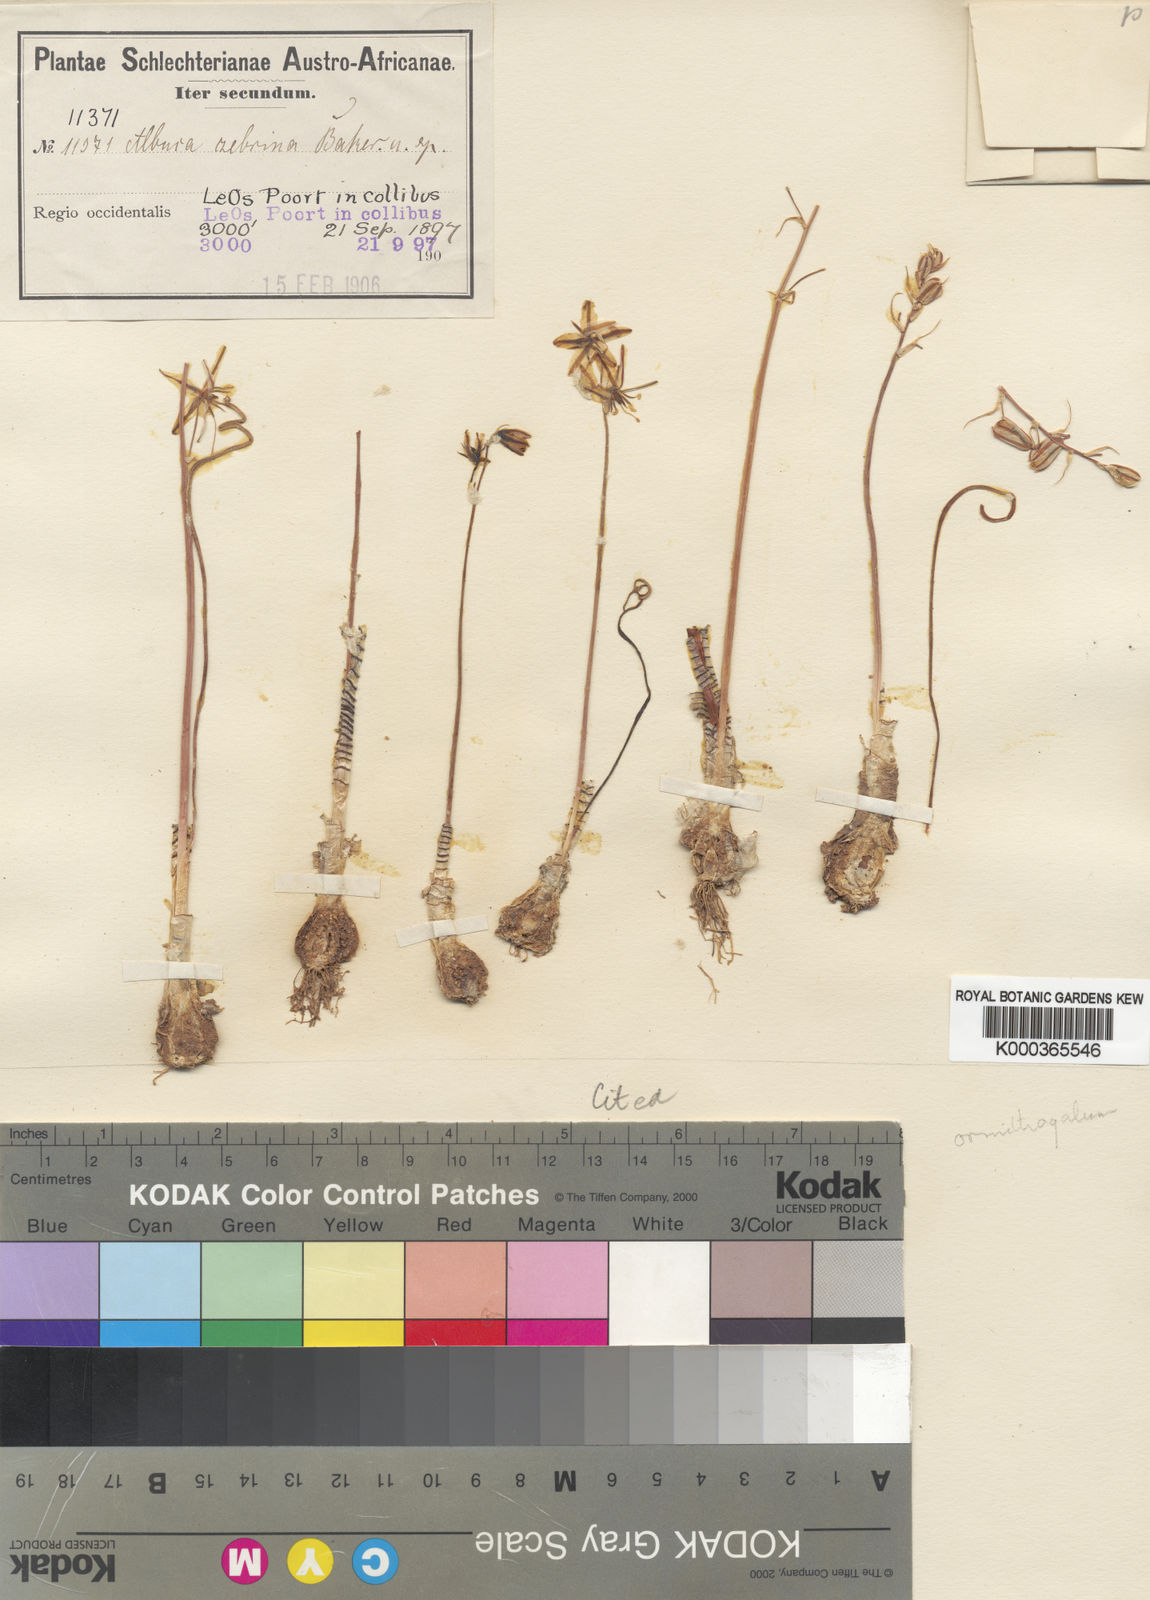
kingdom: Plantae
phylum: Tracheophyta
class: Liliopsida
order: Asparagales
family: Asparagaceae
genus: Albuca
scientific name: Albuca zebrina
